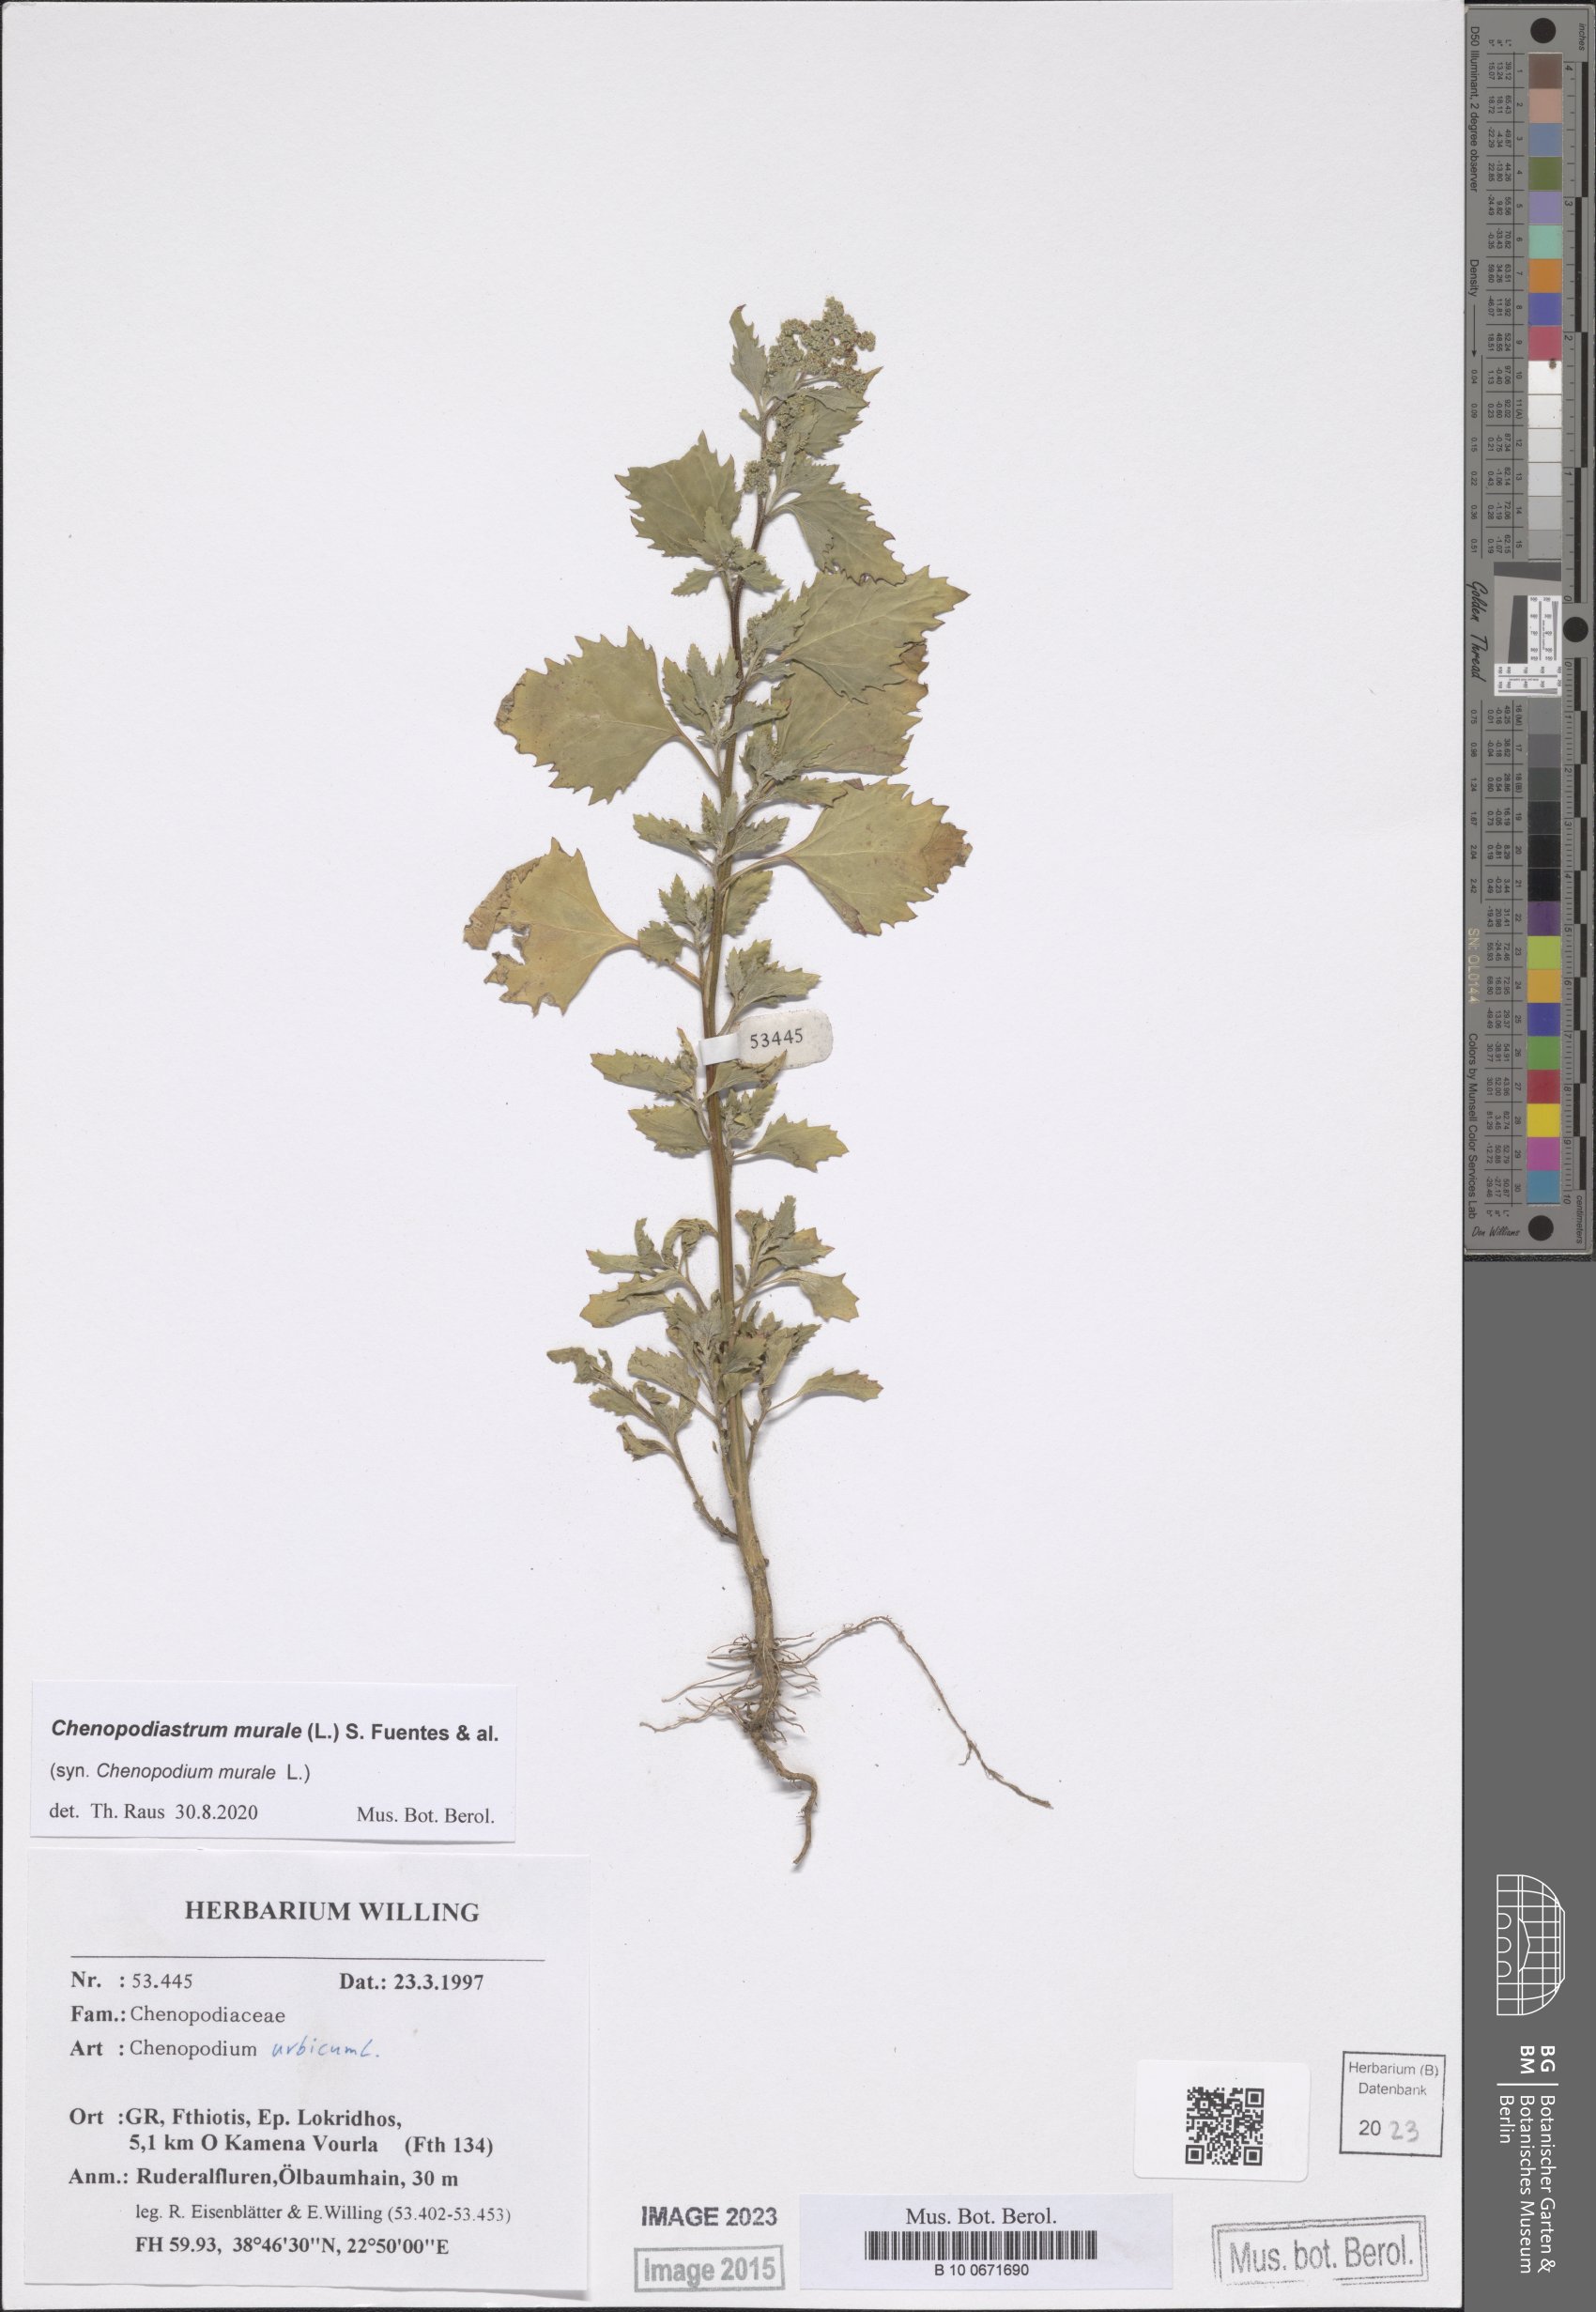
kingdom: Plantae
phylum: Tracheophyta
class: Magnoliopsida
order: Caryophyllales
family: Amaranthaceae
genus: Chenopodiastrum
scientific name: Chenopodiastrum murale
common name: Sowbane
